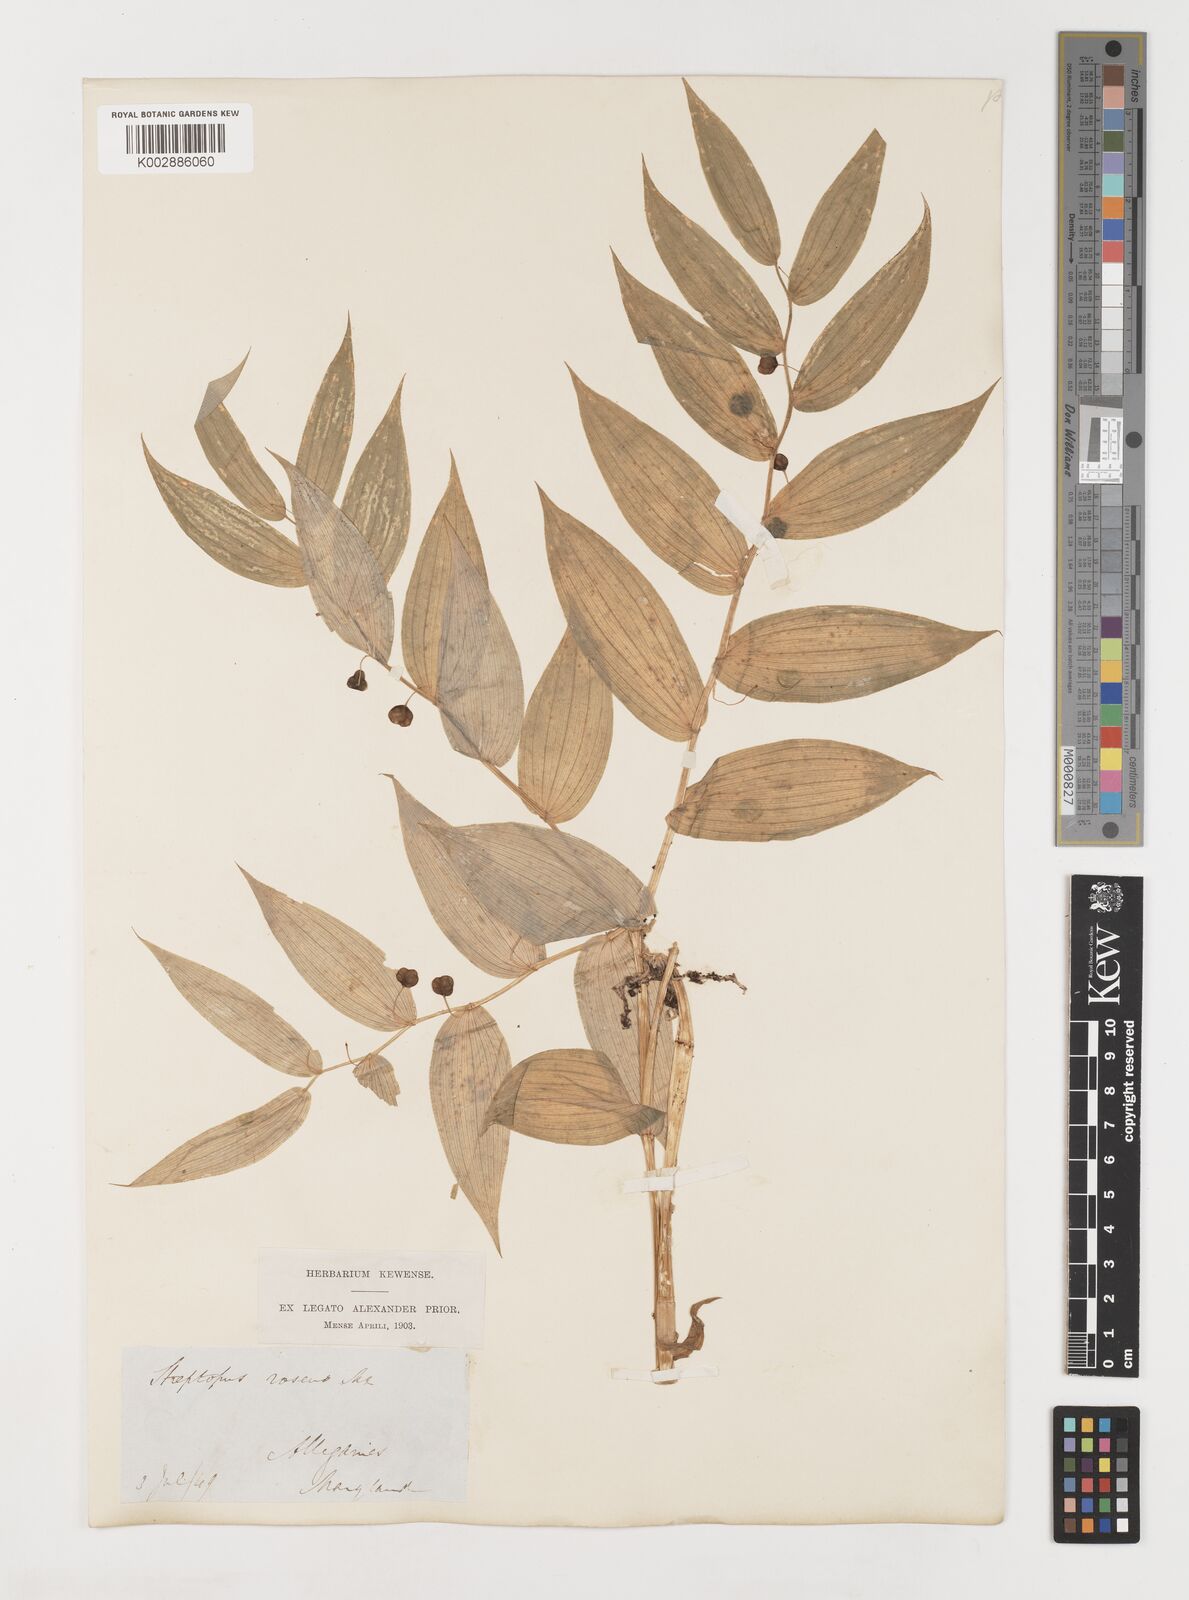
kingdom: Plantae
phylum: Tracheophyta
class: Liliopsida
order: Liliales
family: Liliaceae
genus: Streptopus
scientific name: Streptopus lanceolatus
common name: Rose mandarin
